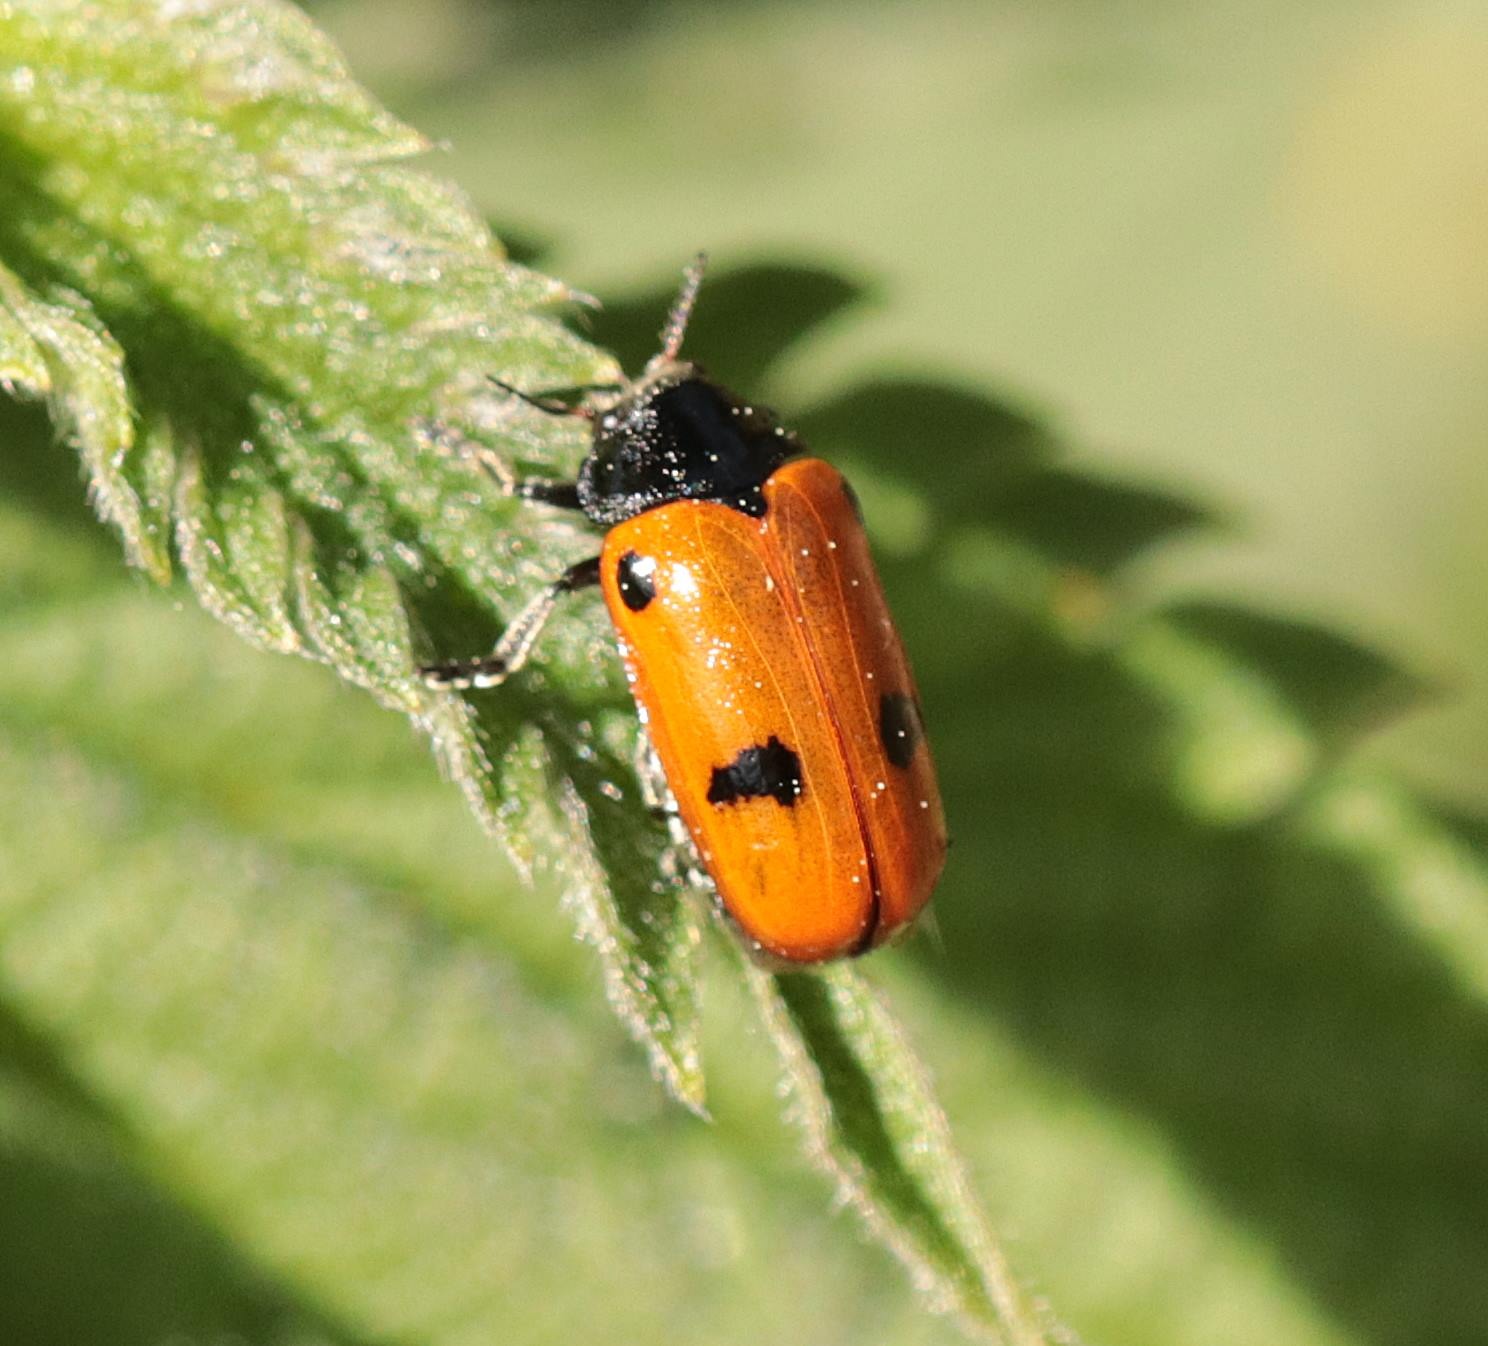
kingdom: Animalia
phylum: Arthropoda
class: Insecta
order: Coleoptera
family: Chrysomelidae
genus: Clytra
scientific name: Clytra quadripunctata
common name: Myrebladbille
